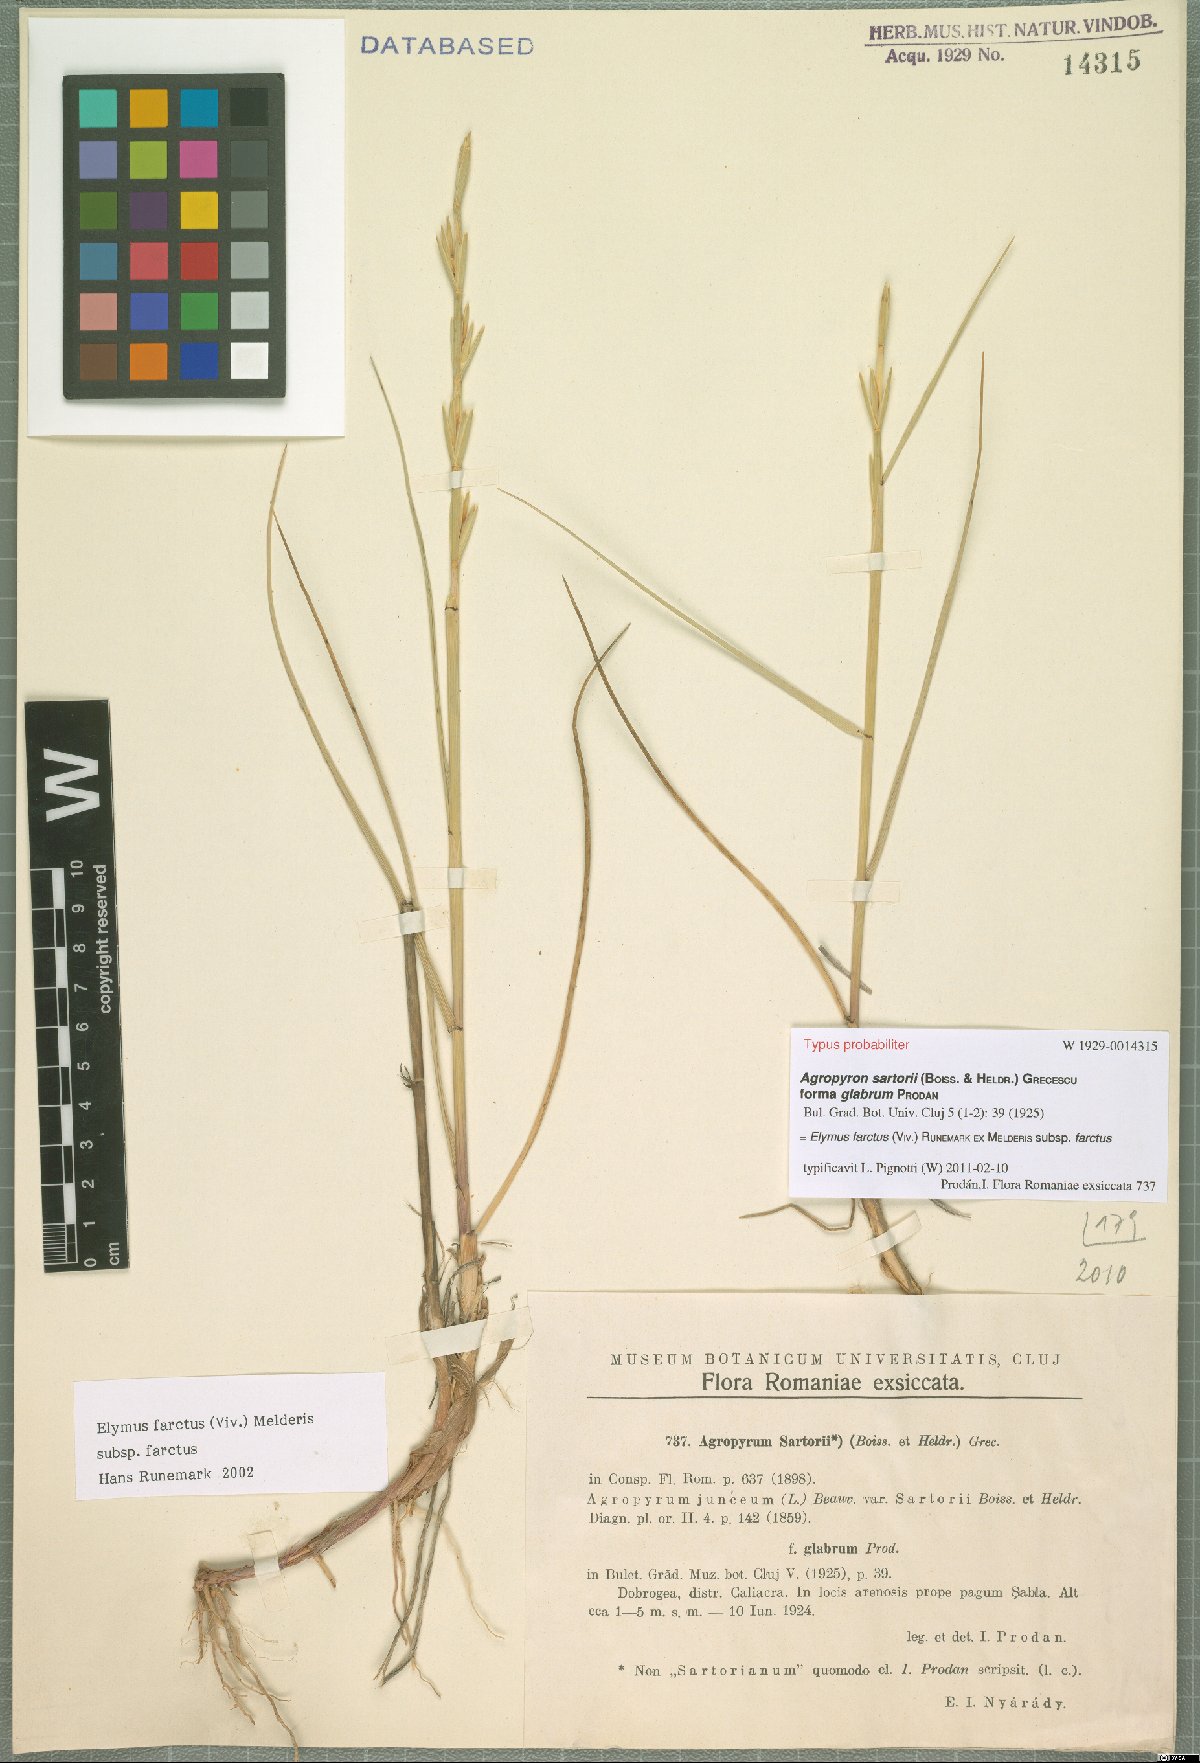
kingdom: Plantae
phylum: Tracheophyta
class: Liliopsida
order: Poales
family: Poaceae
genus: Thinopyrum
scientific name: Thinopyrum junceum
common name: Russian wheatgrass
